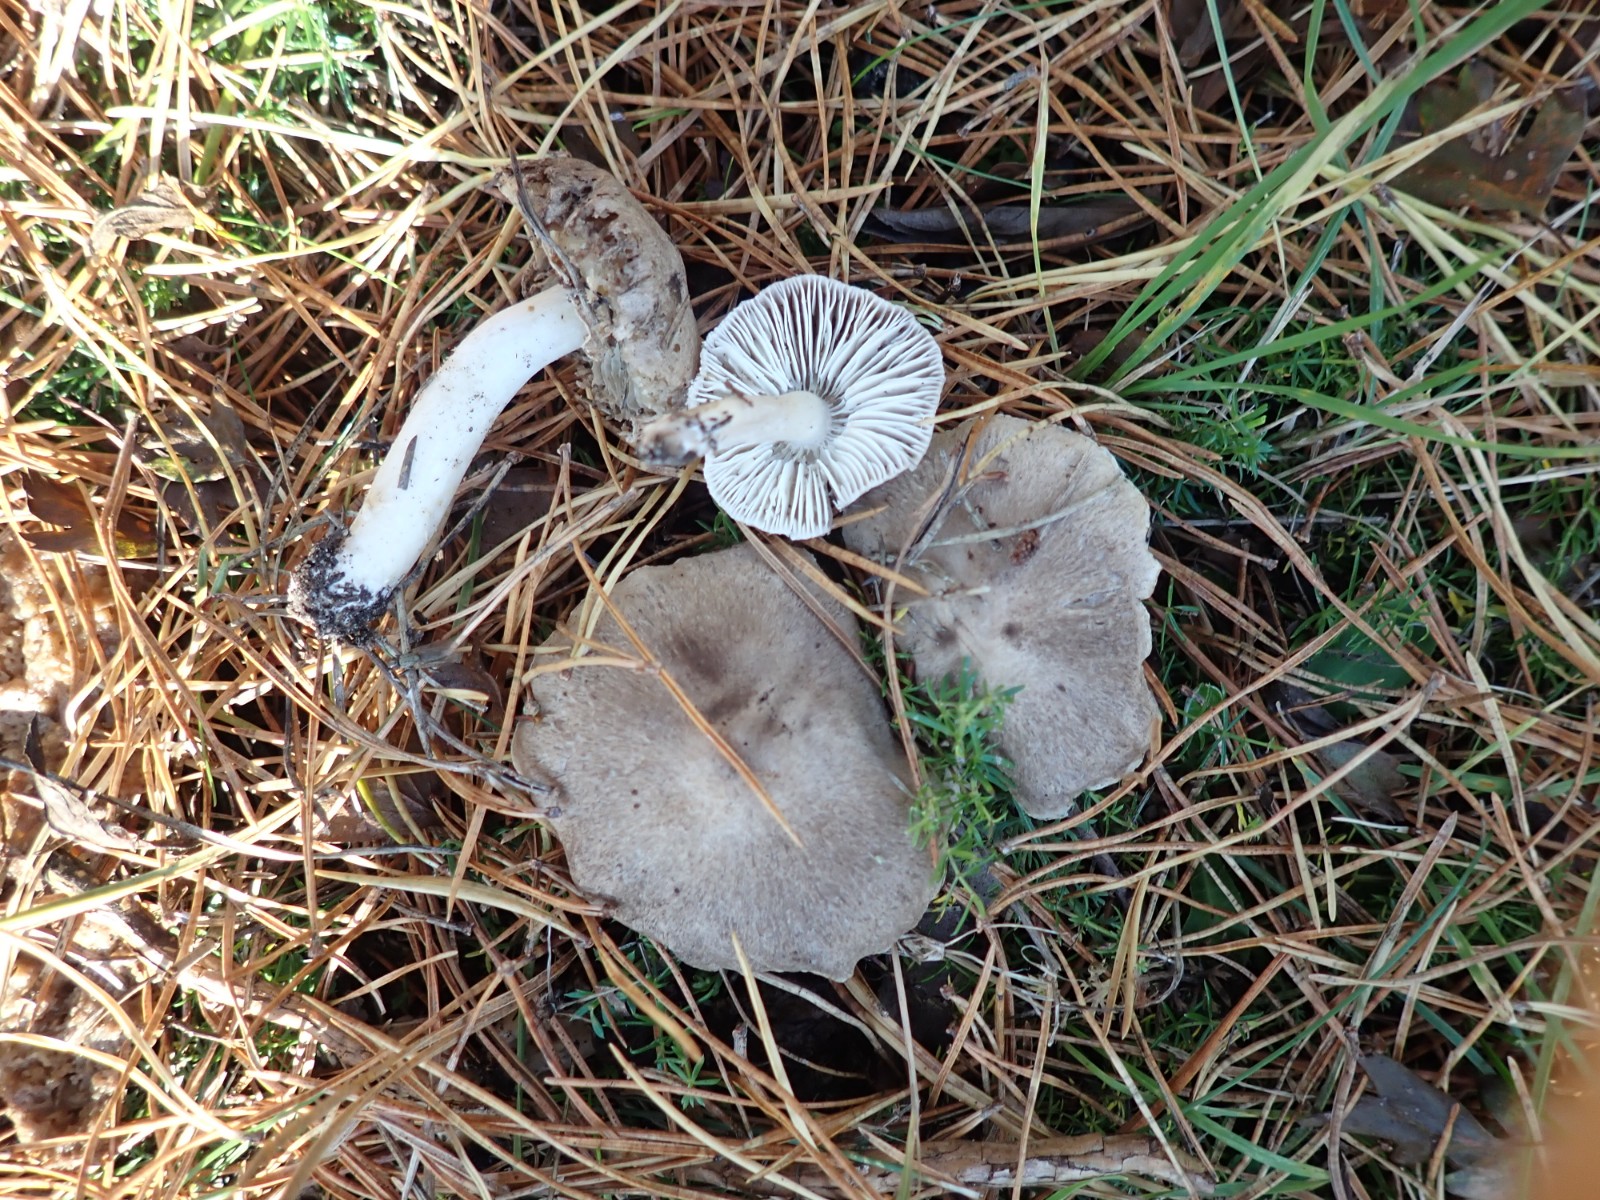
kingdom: Fungi
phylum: Basidiomycota
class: Agaricomycetes
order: Agaricales
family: Tricholomataceae
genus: Tricholoma
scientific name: Tricholoma terreum
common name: jordfarvet ridderhat
